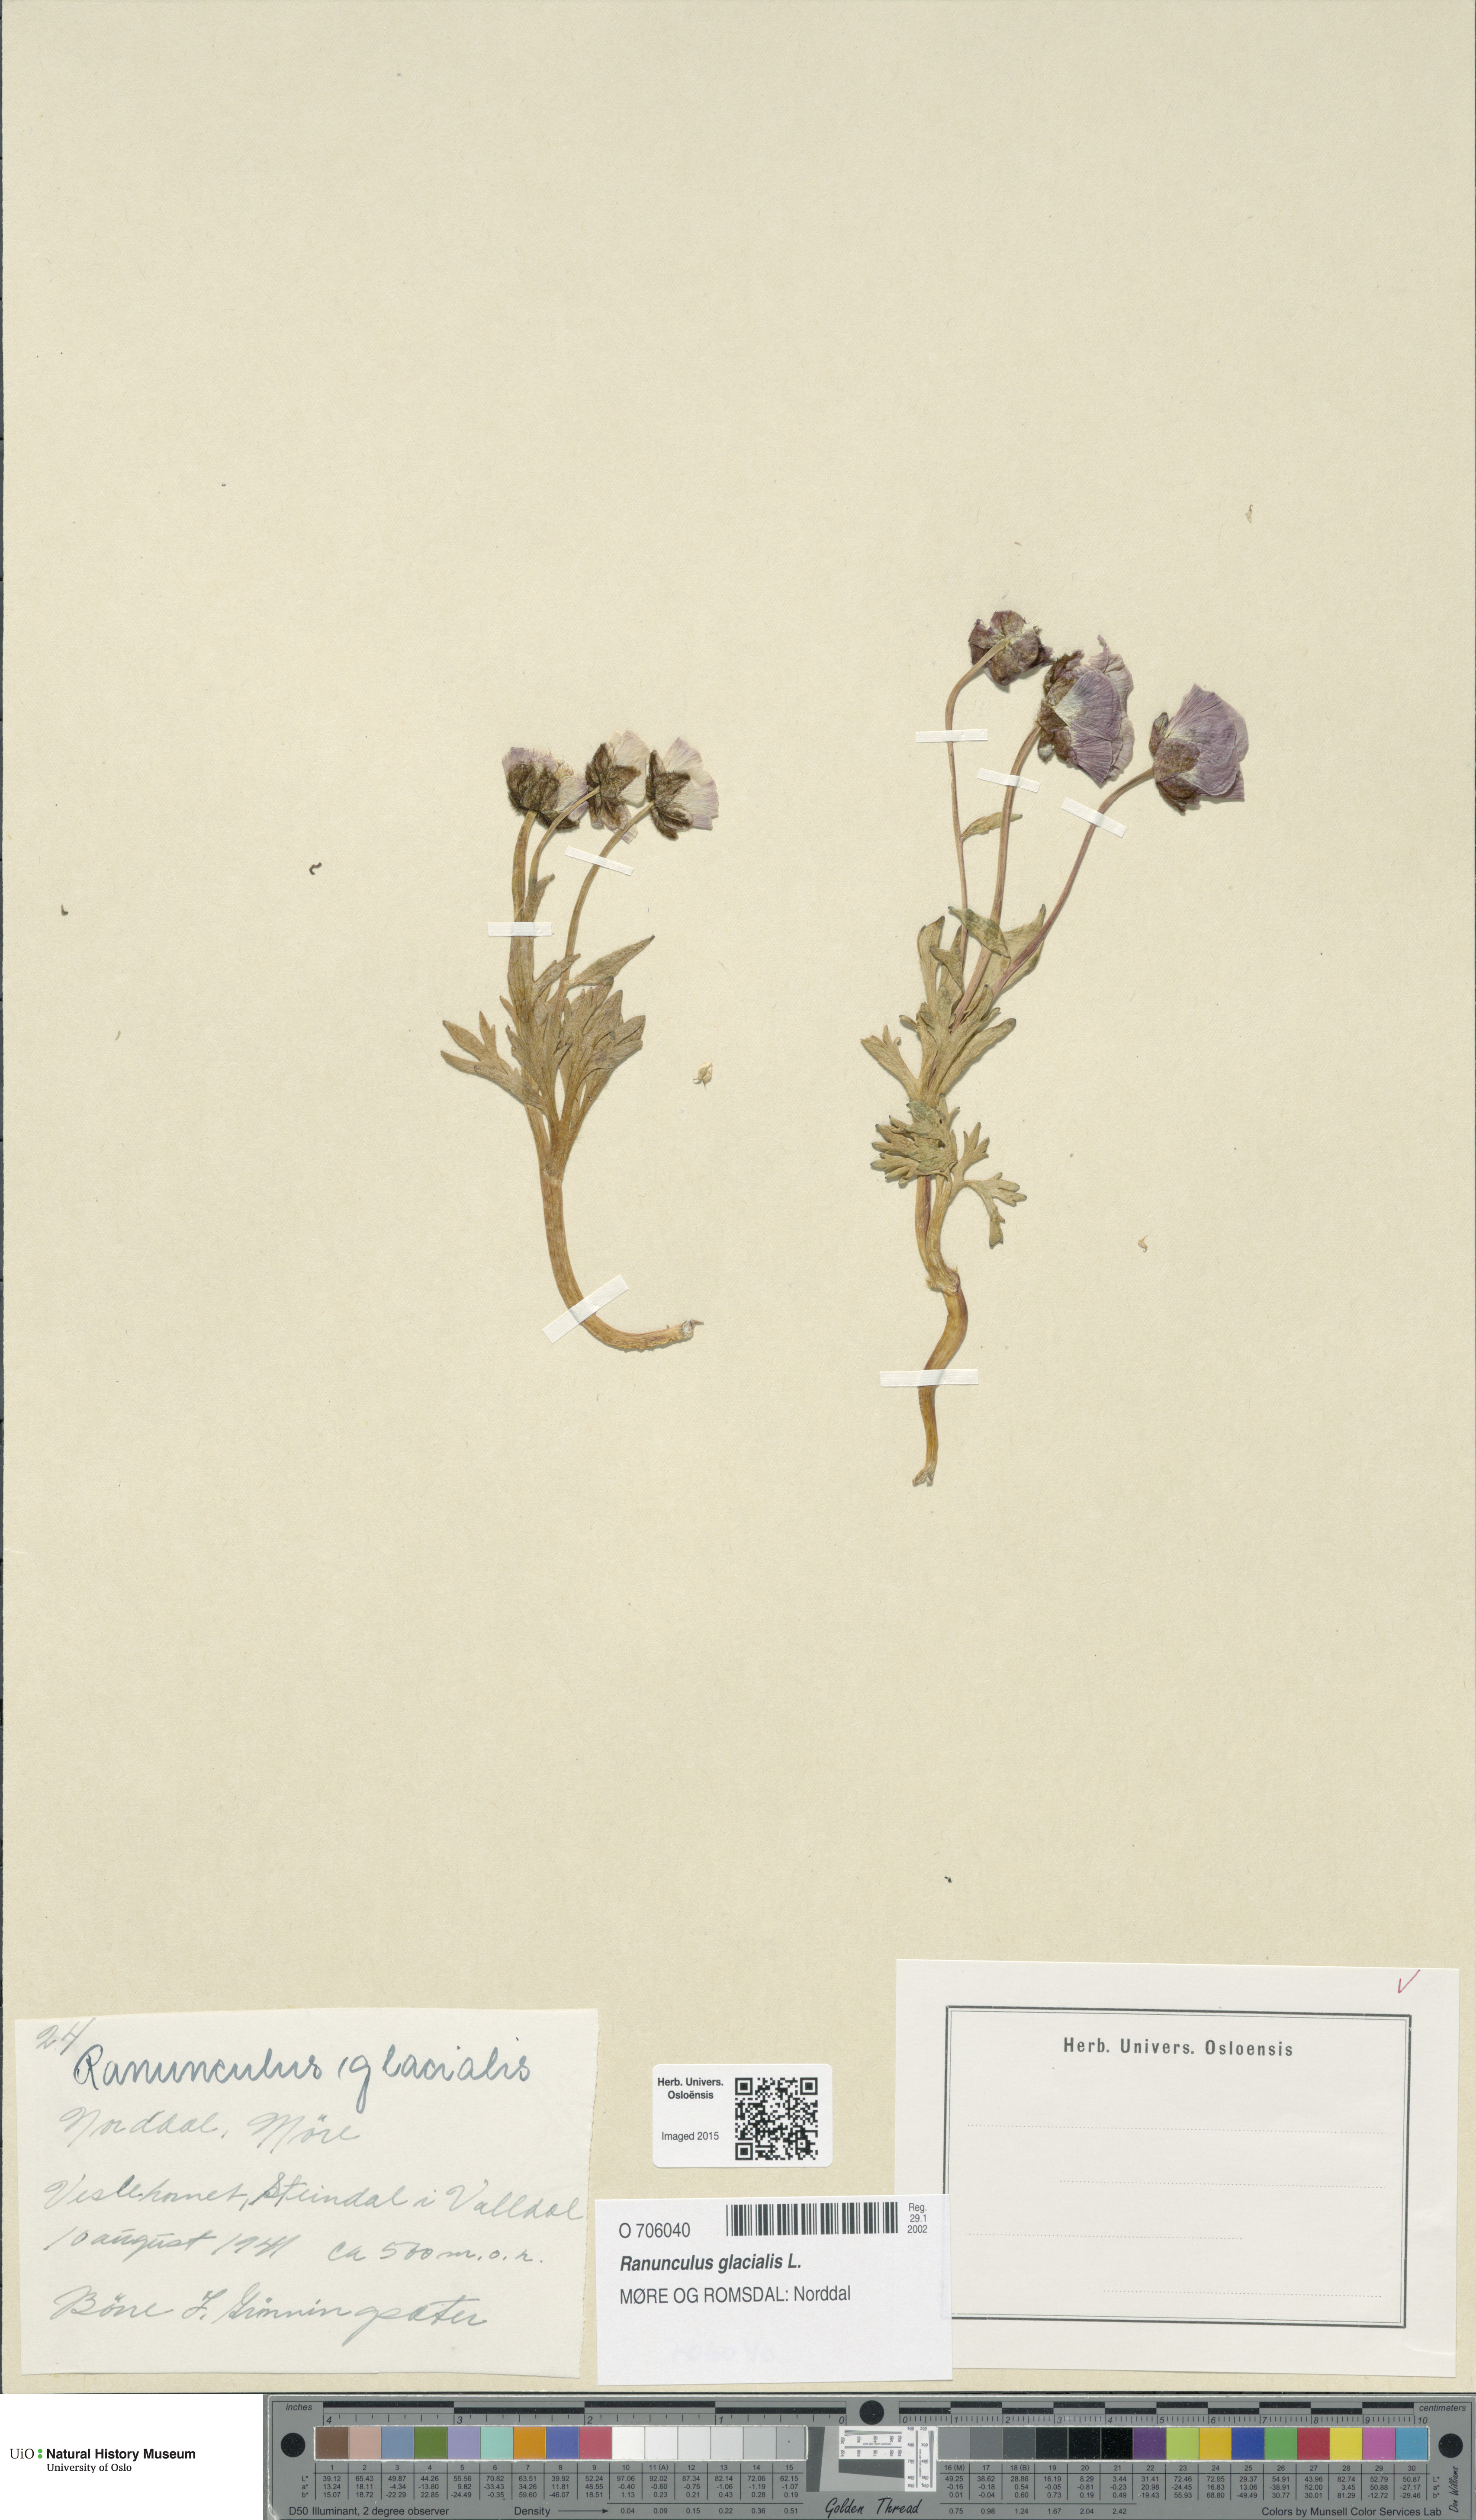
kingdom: Plantae
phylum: Tracheophyta
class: Magnoliopsida
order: Ranunculales
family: Ranunculaceae
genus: Ranunculus
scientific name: Ranunculus glacialis
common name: Glacier buttercup
